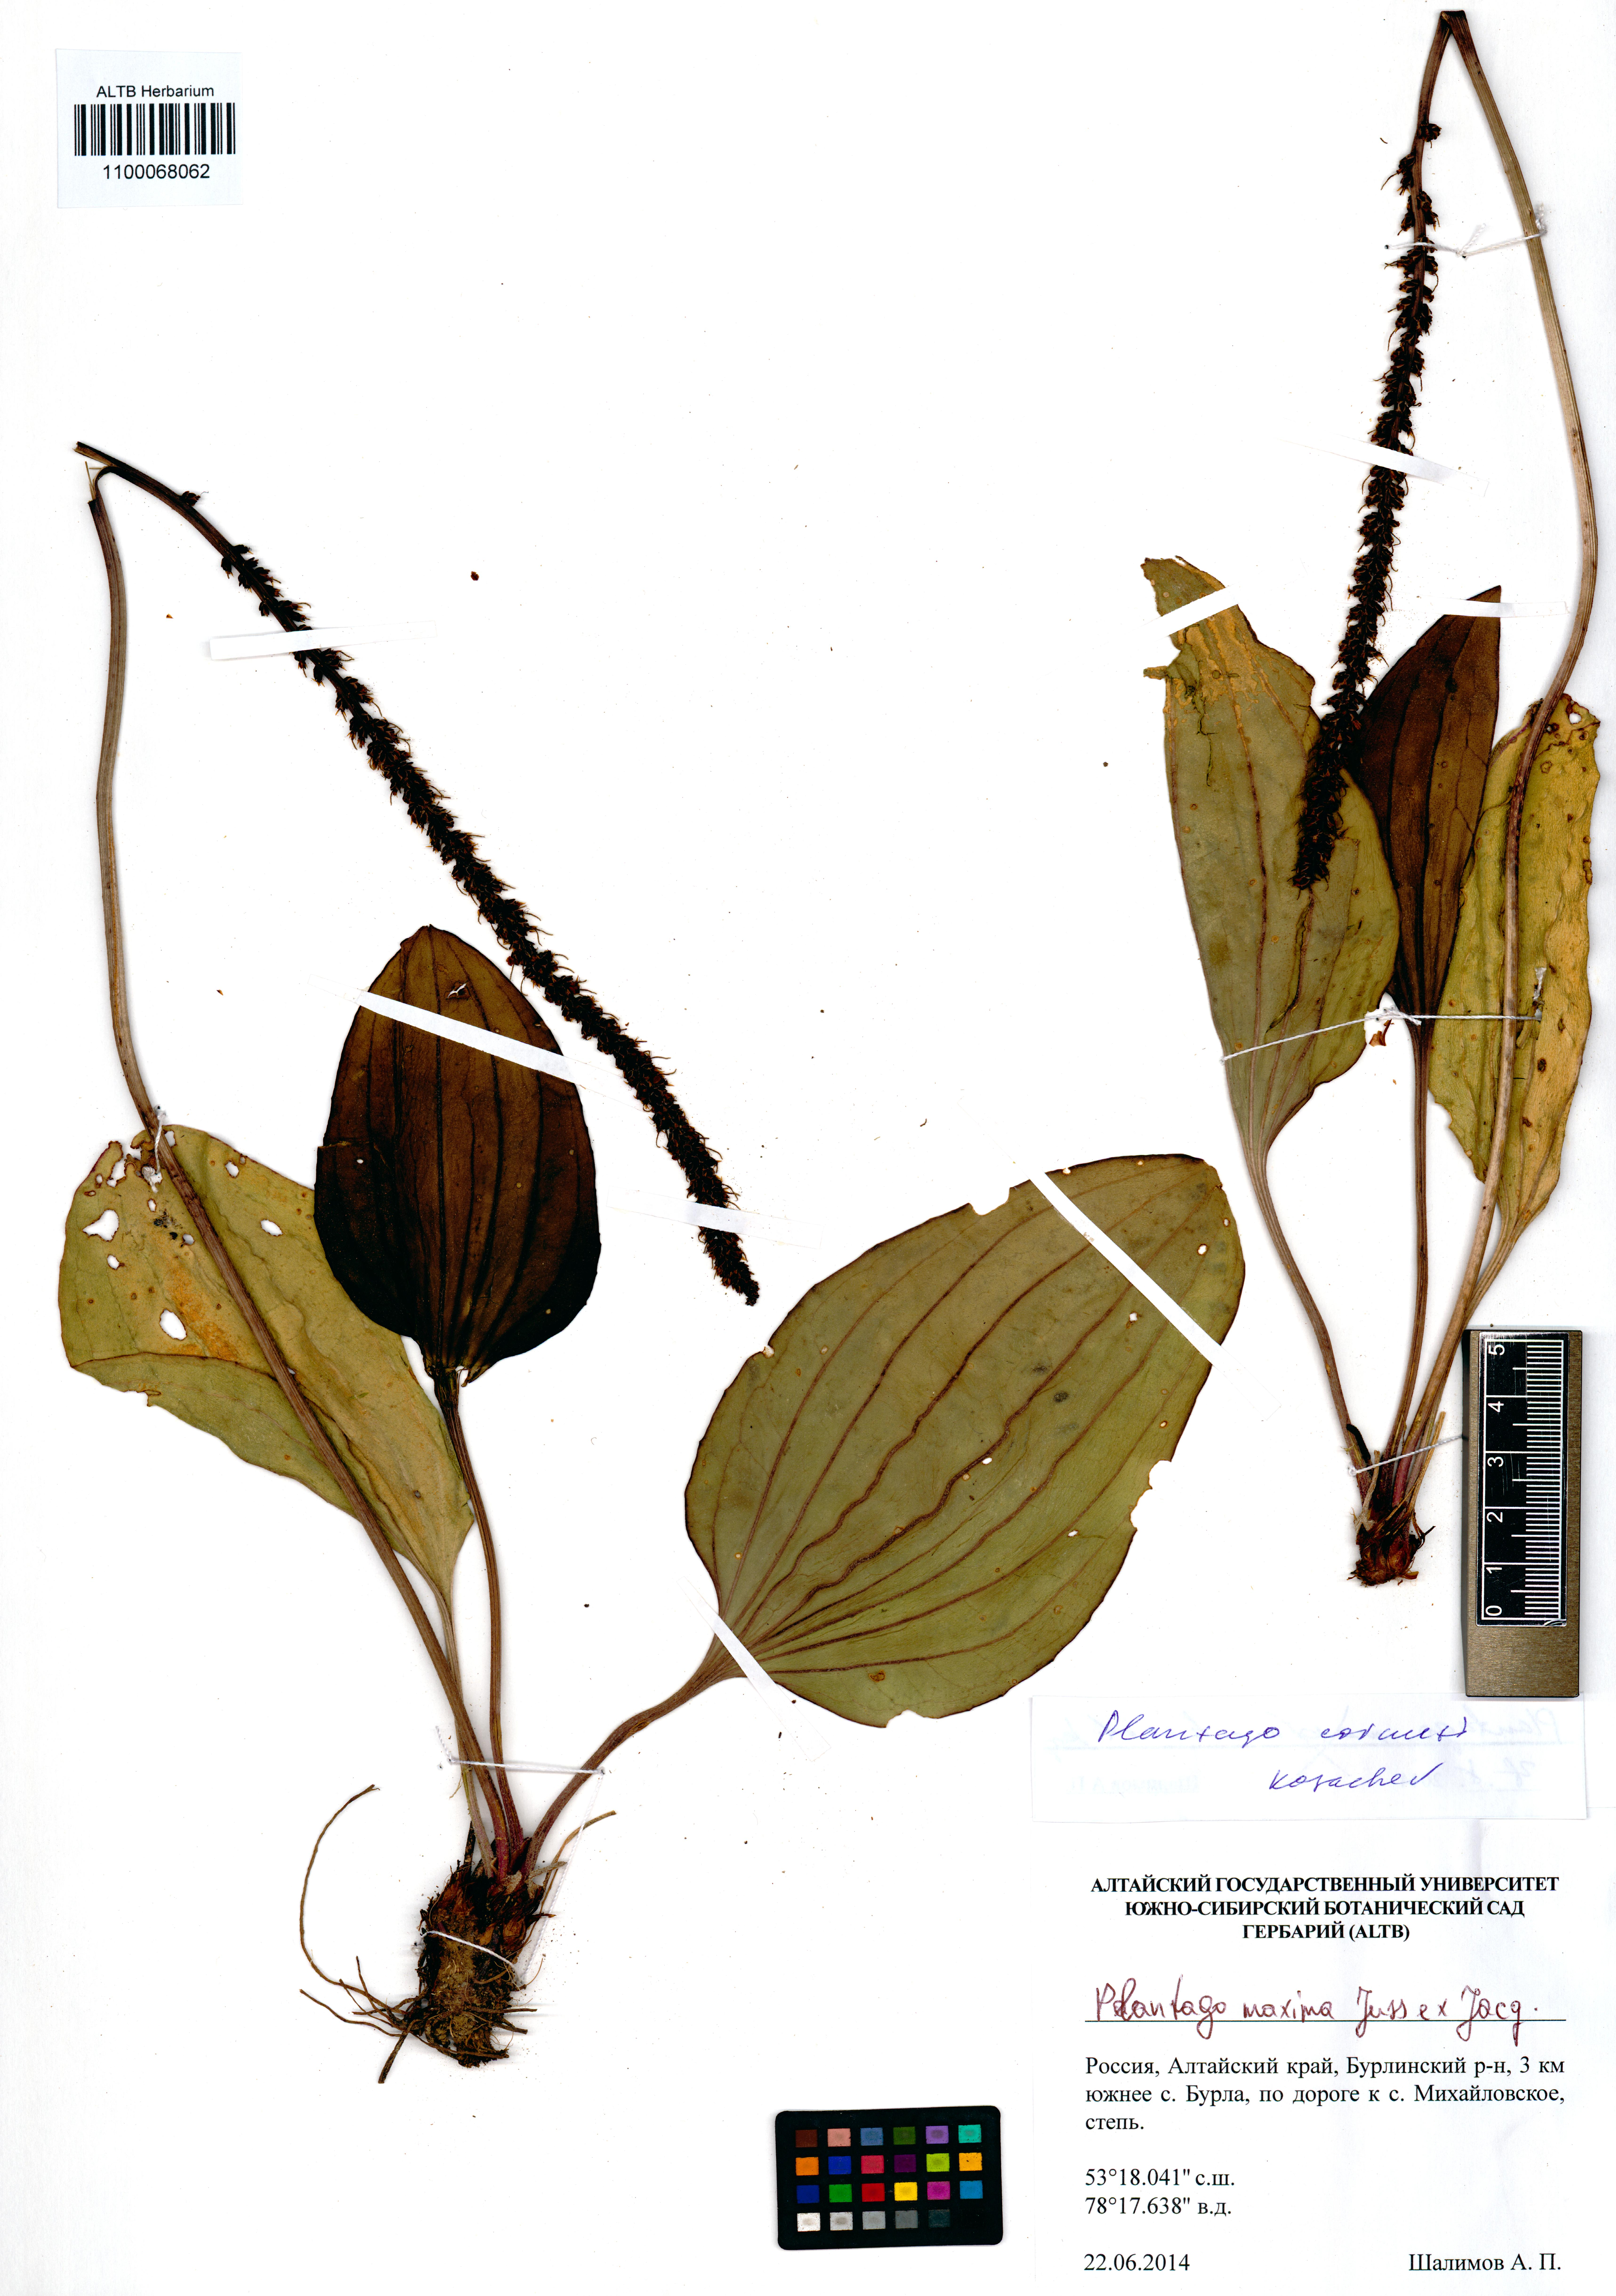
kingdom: Plantae
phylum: Tracheophyta
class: Magnoliopsida
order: Lamiales
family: Plantaginaceae
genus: Plantago
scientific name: Plantago cornuti
